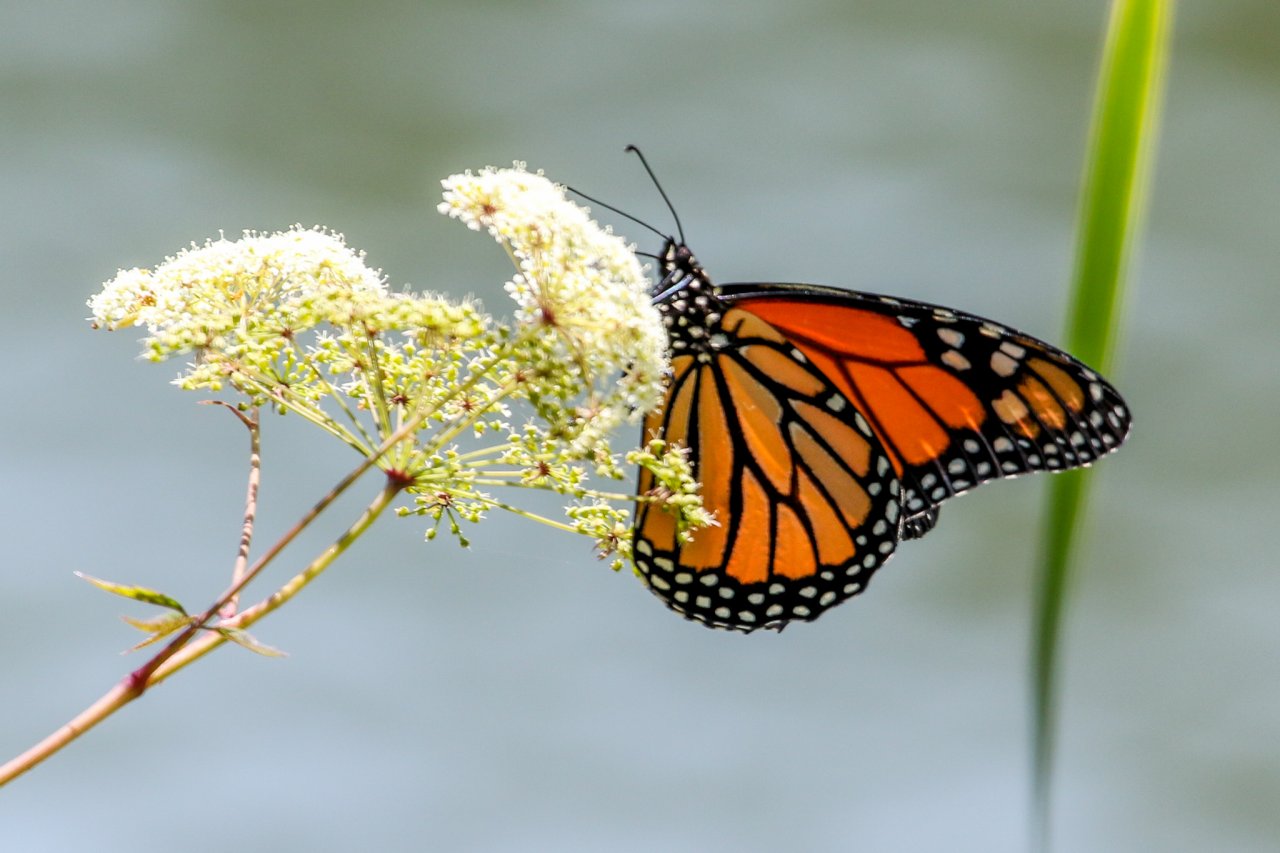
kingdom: Animalia
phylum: Arthropoda
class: Insecta
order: Lepidoptera
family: Nymphalidae
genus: Danaus
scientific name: Danaus plexippus
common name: Monarch
